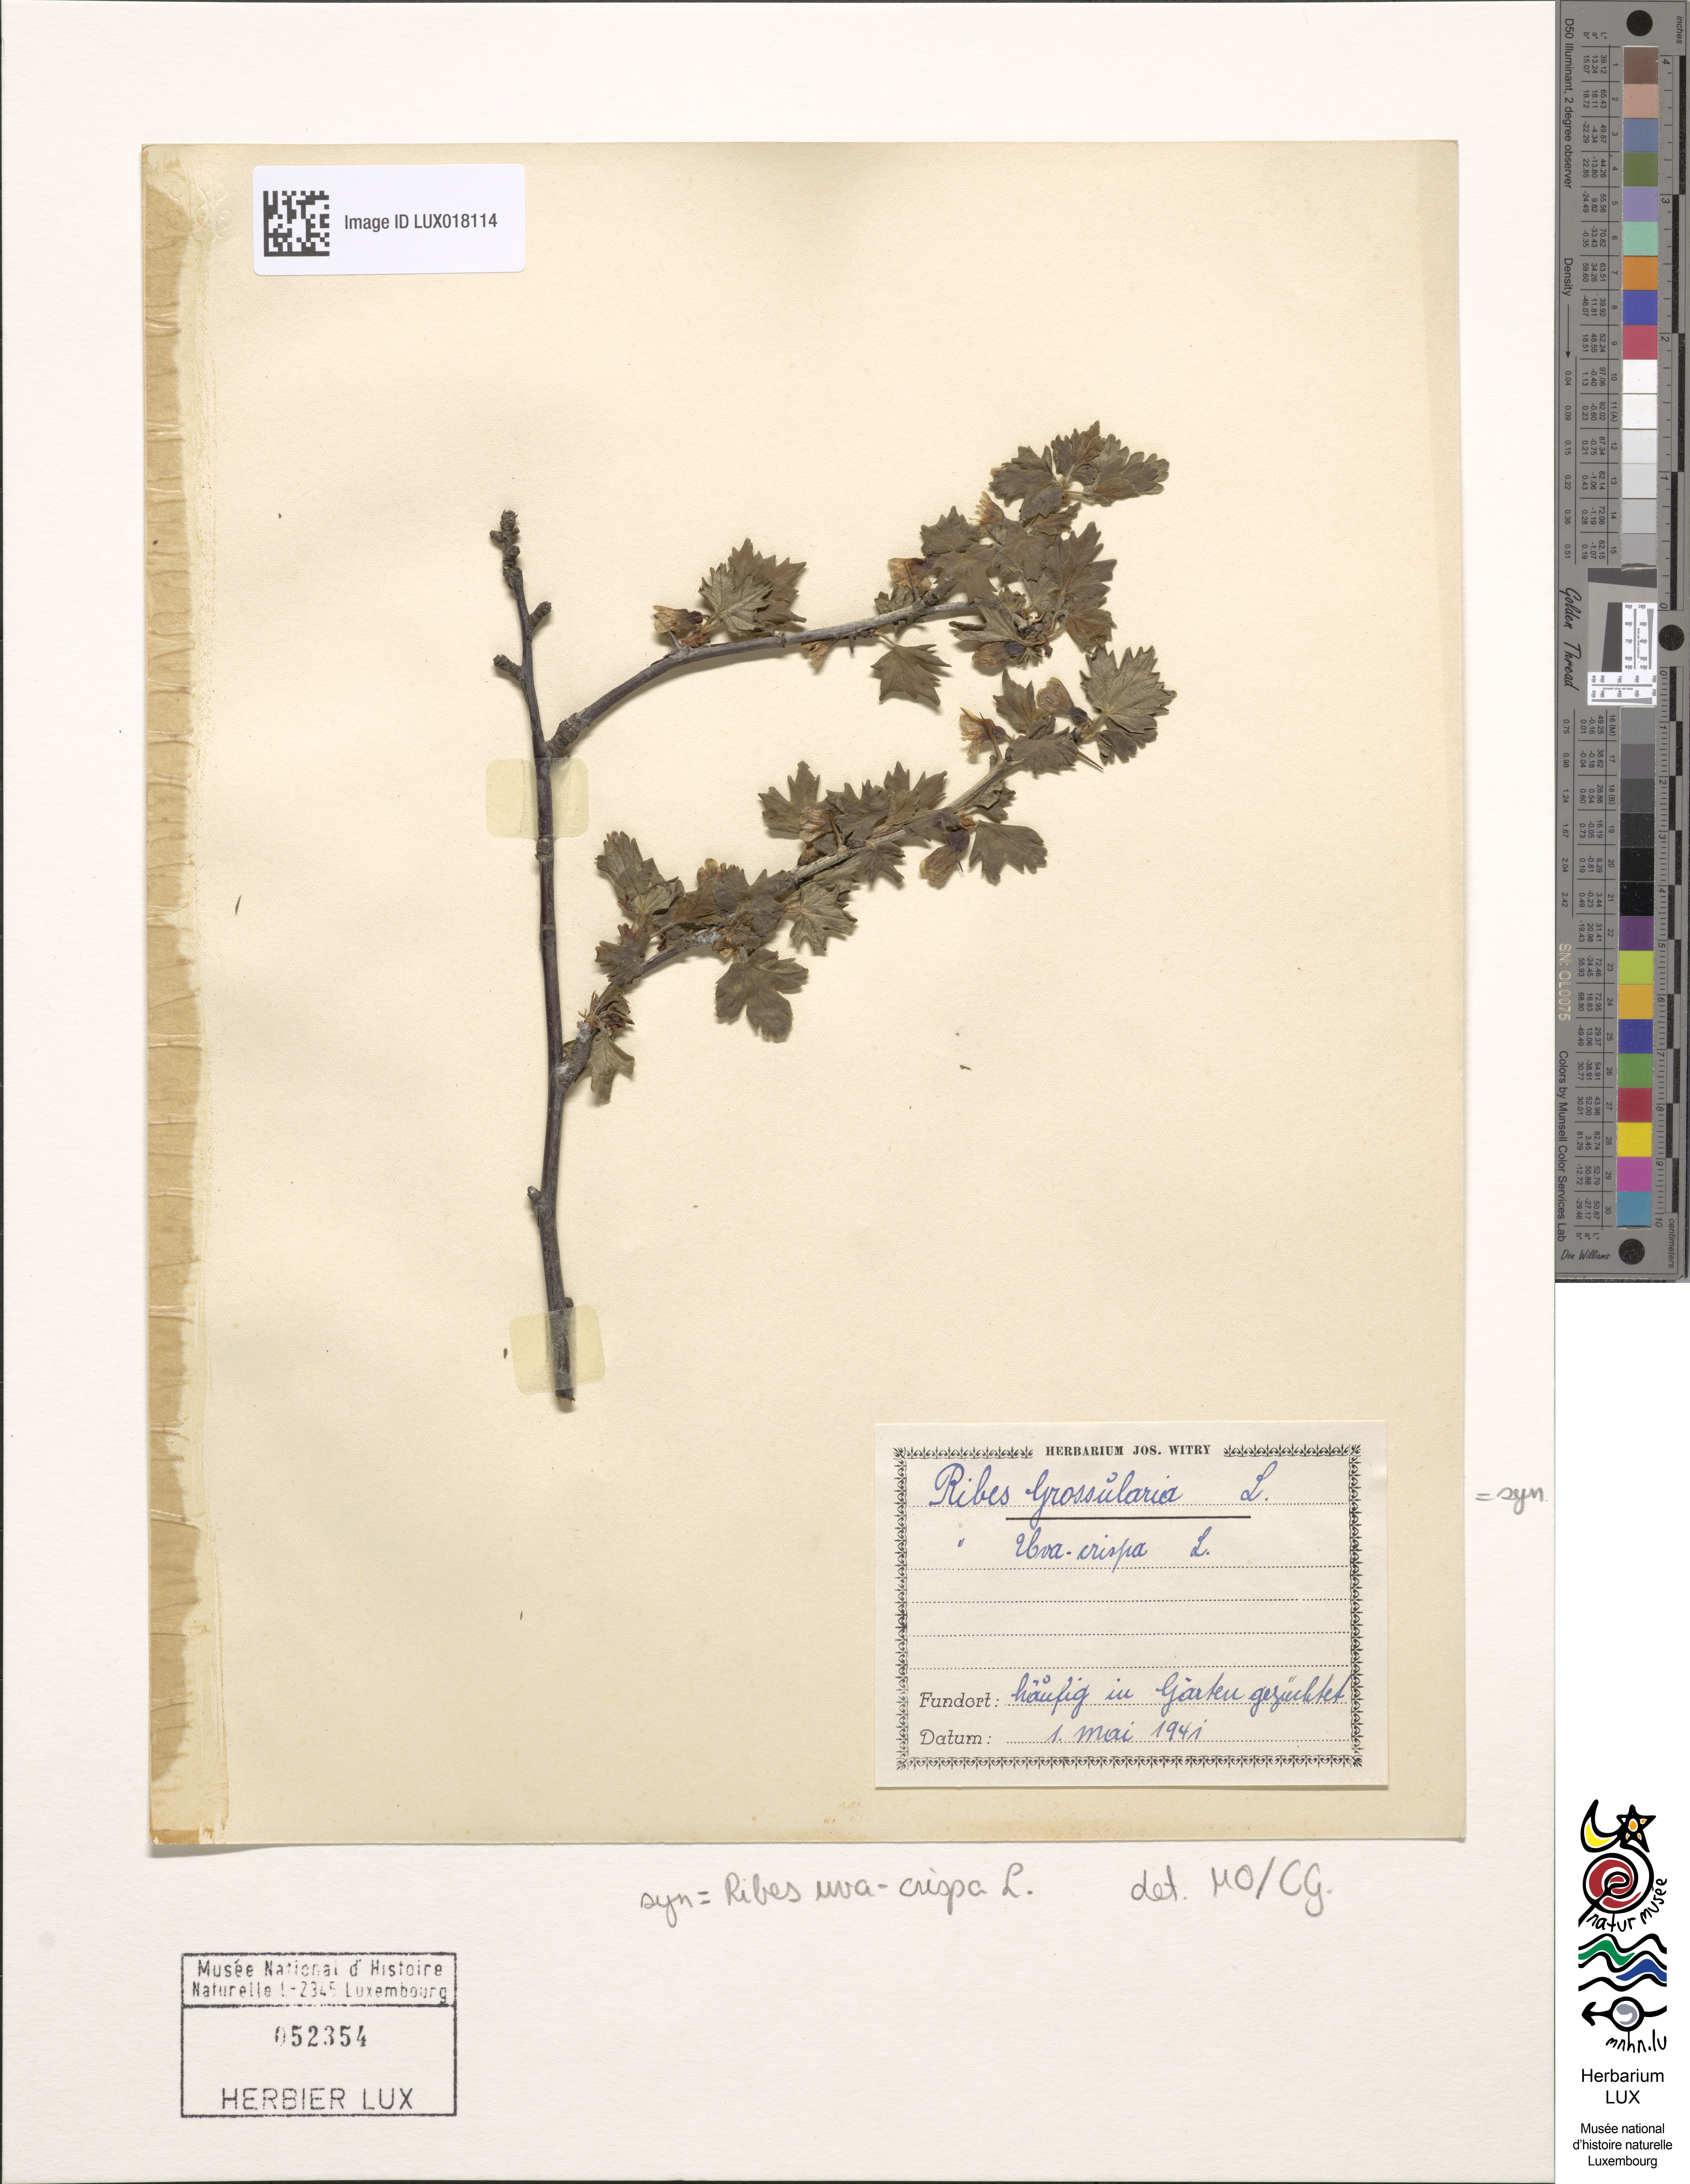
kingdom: Plantae
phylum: Tracheophyta
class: Magnoliopsida
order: Saxifragales
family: Grossulariaceae
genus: Ribes
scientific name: Ribes uva-crispa
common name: Gooseberry
